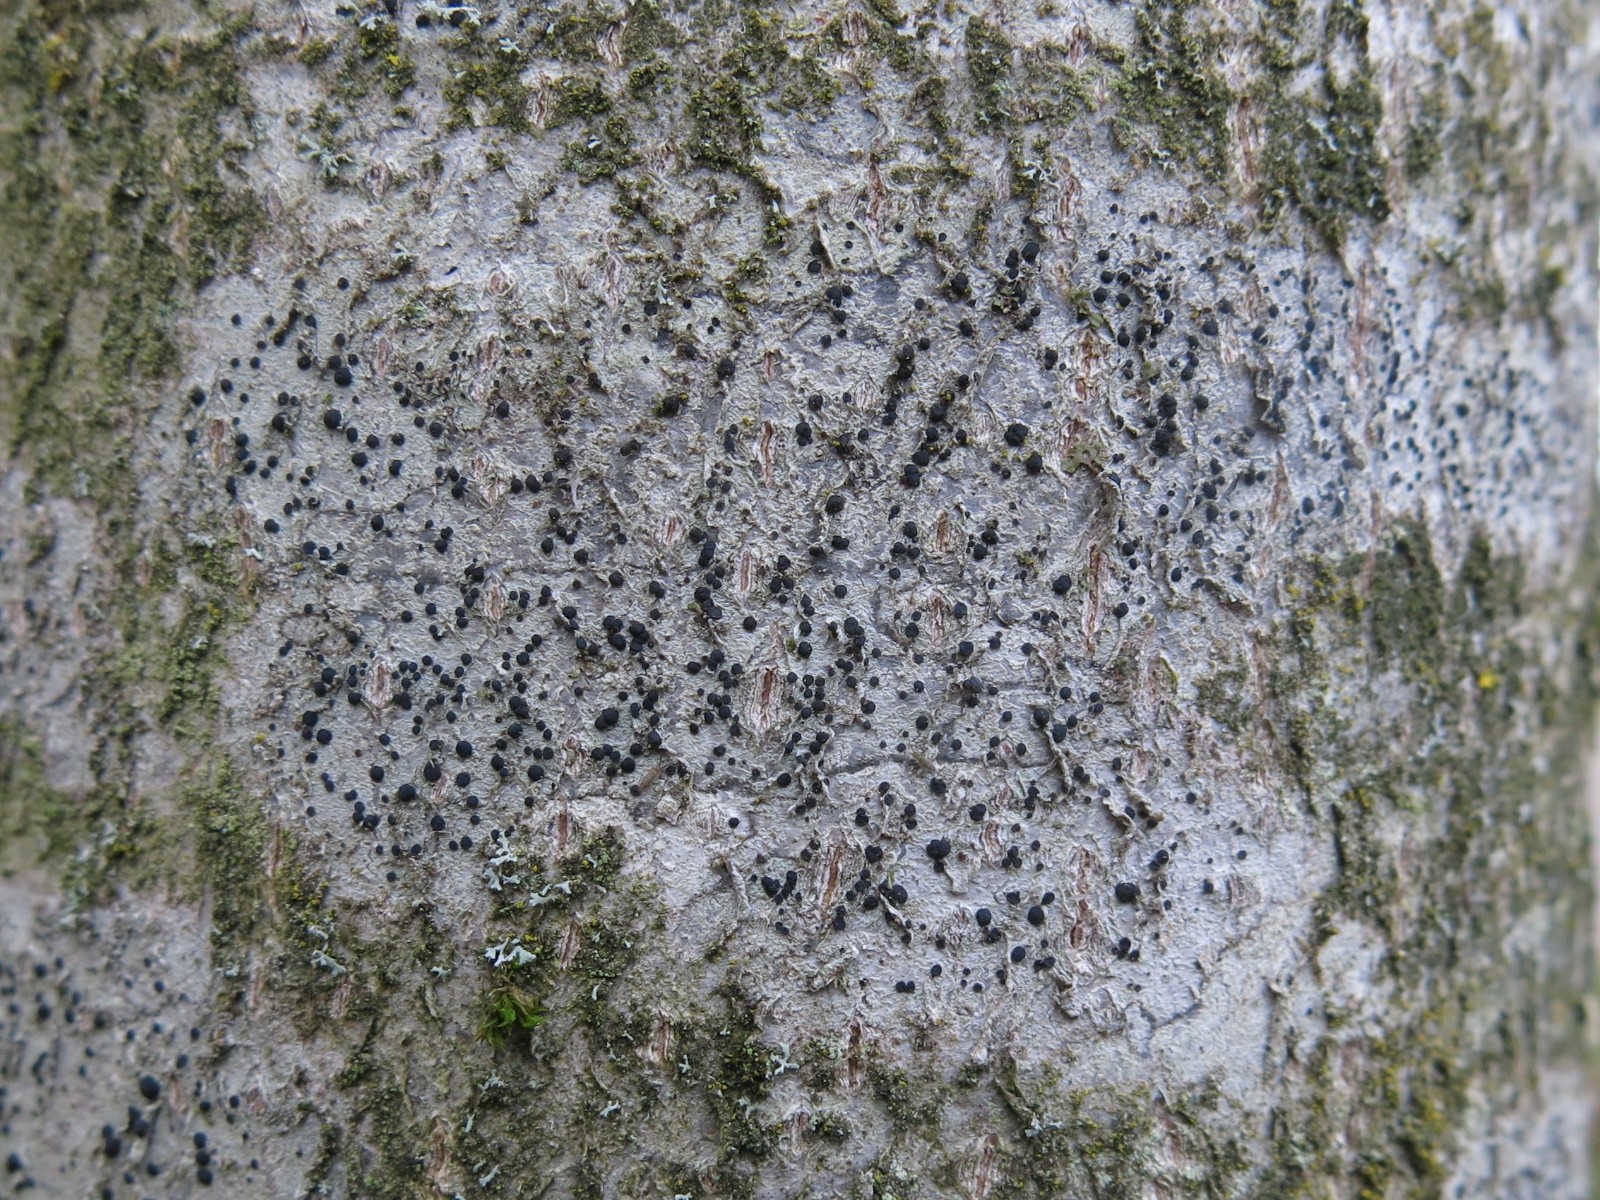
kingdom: Fungi
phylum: Ascomycota
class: Lecanoromycetes
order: Lecanorales
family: Lecanoraceae
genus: Lecidella
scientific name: Lecidella euphorea
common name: vortet skivelav
